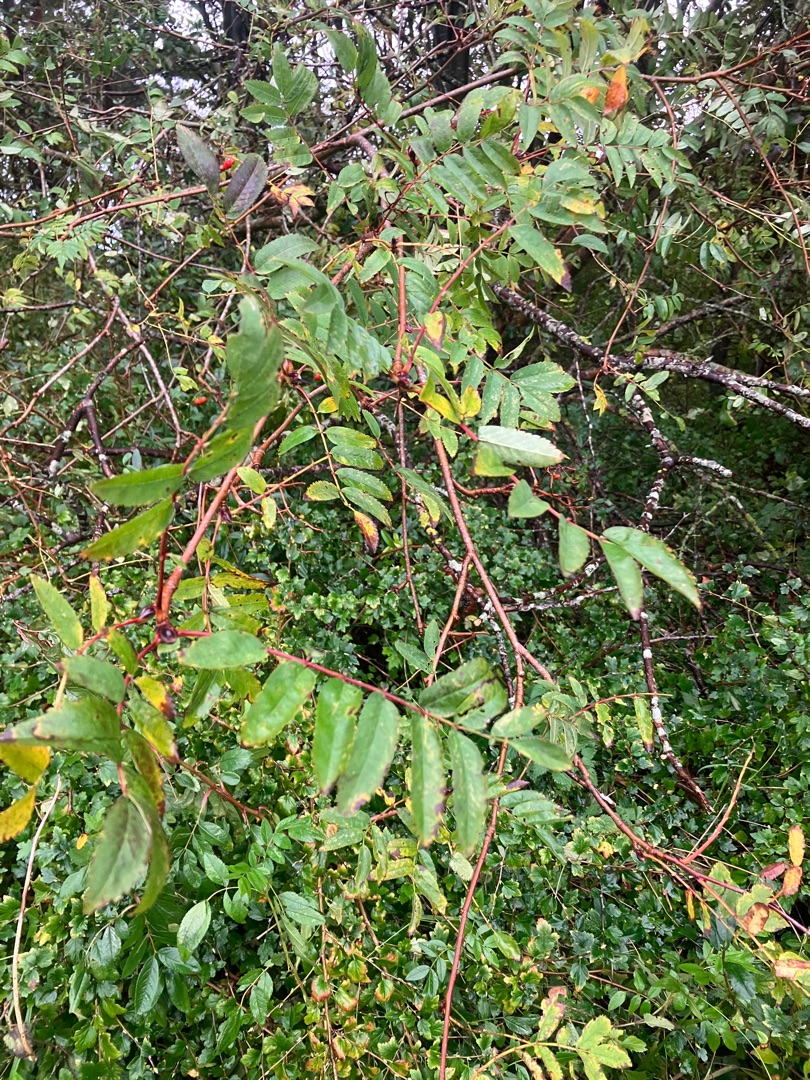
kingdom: Plantae
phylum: Tracheophyta
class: Magnoliopsida
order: Rosales
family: Rosaceae
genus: Sorbus
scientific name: Sorbus aucuparia
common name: Almindelig røn
